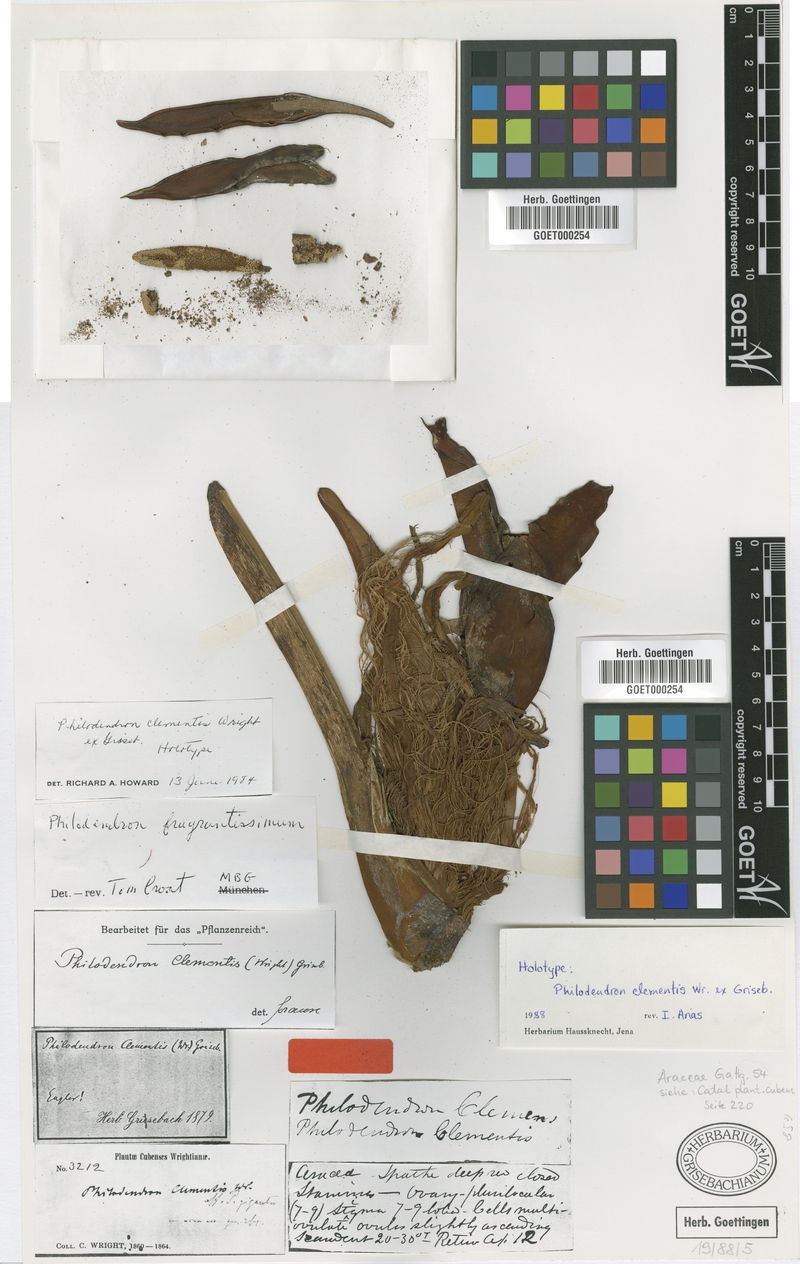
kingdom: Plantae
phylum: Tracheophyta
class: Liliopsida
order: Alismatales
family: Araceae
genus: Philodendron
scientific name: Philodendron fragrantissimum
